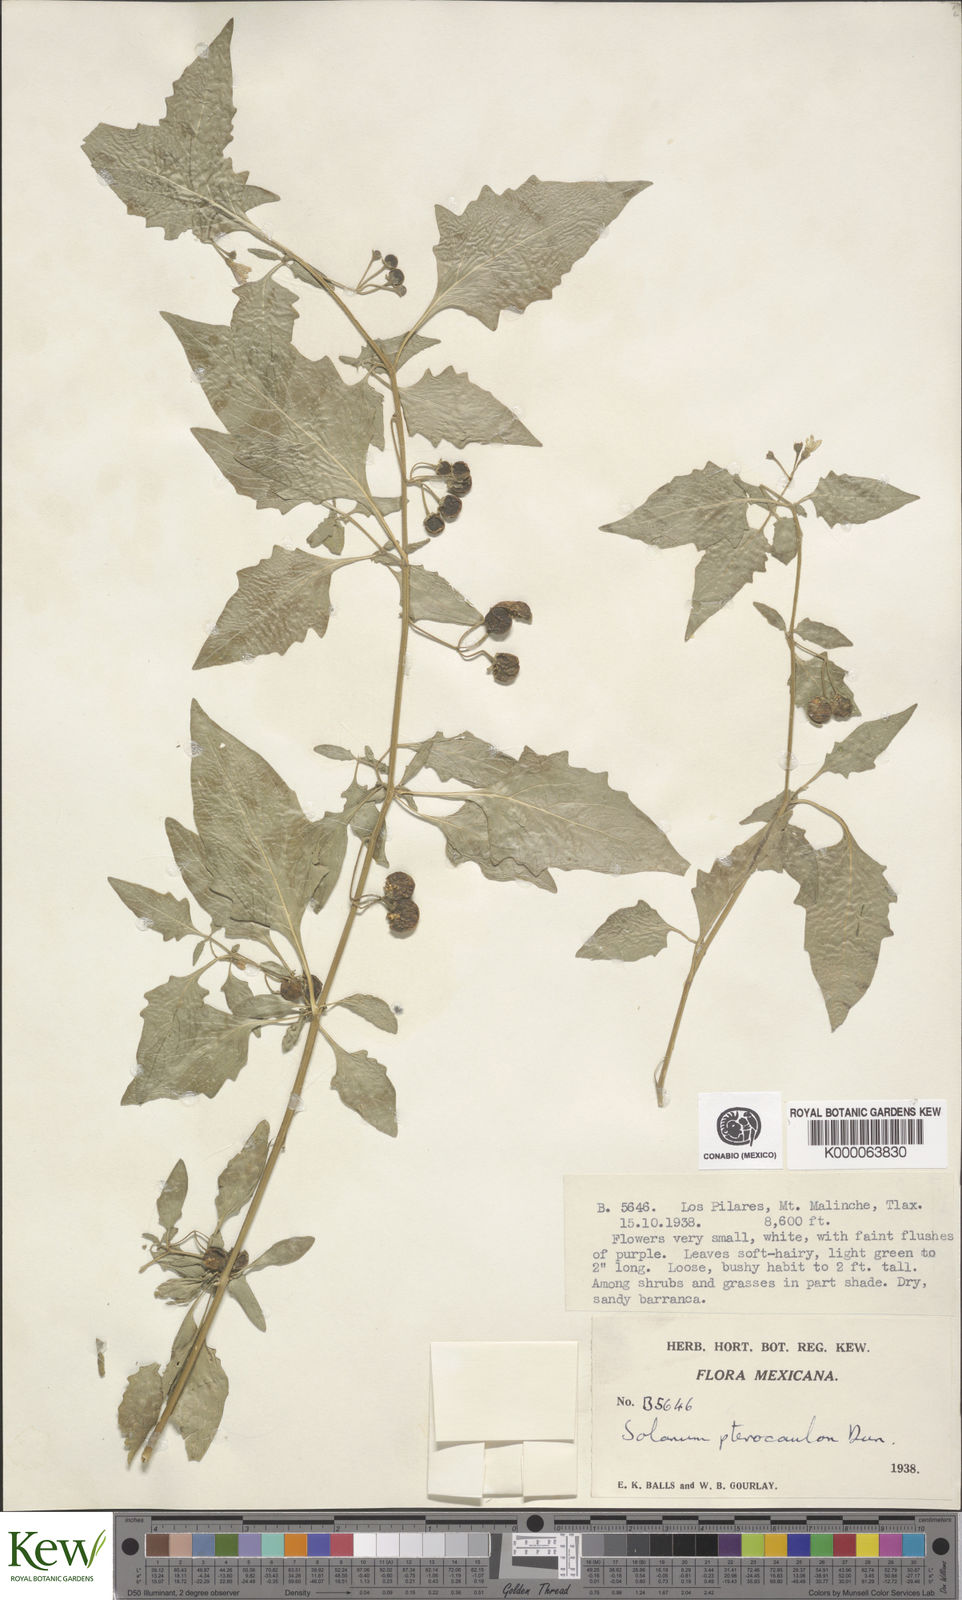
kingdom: Plantae
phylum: Tracheophyta
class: Magnoliopsida
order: Solanales
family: Solanaceae
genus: Solanum
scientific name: Solanum
